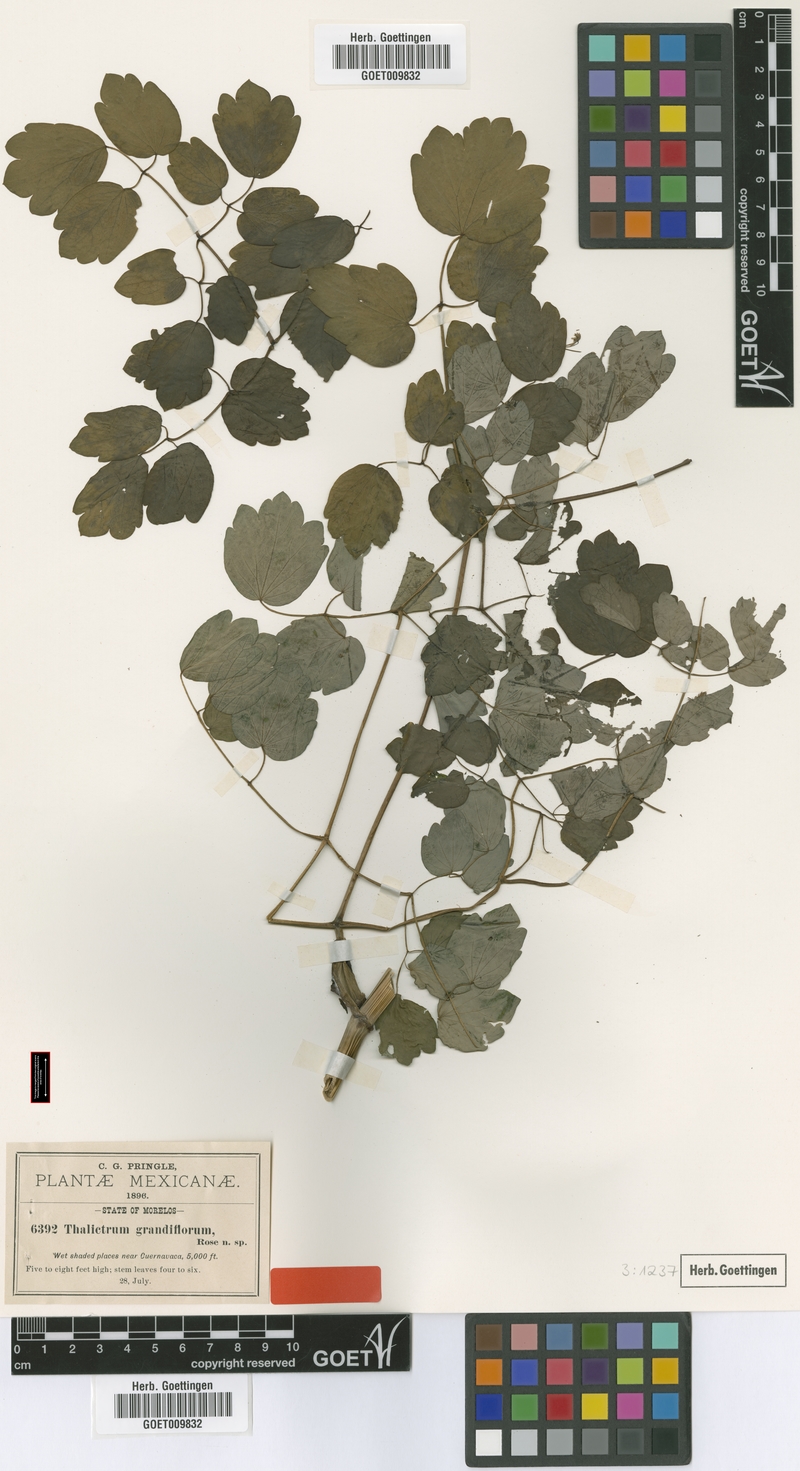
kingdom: Plantae
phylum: Tracheophyta
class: Magnoliopsida
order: Ranunculales
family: Ranunculaceae
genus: Thalictrum
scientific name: Thalictrum grandifolium
